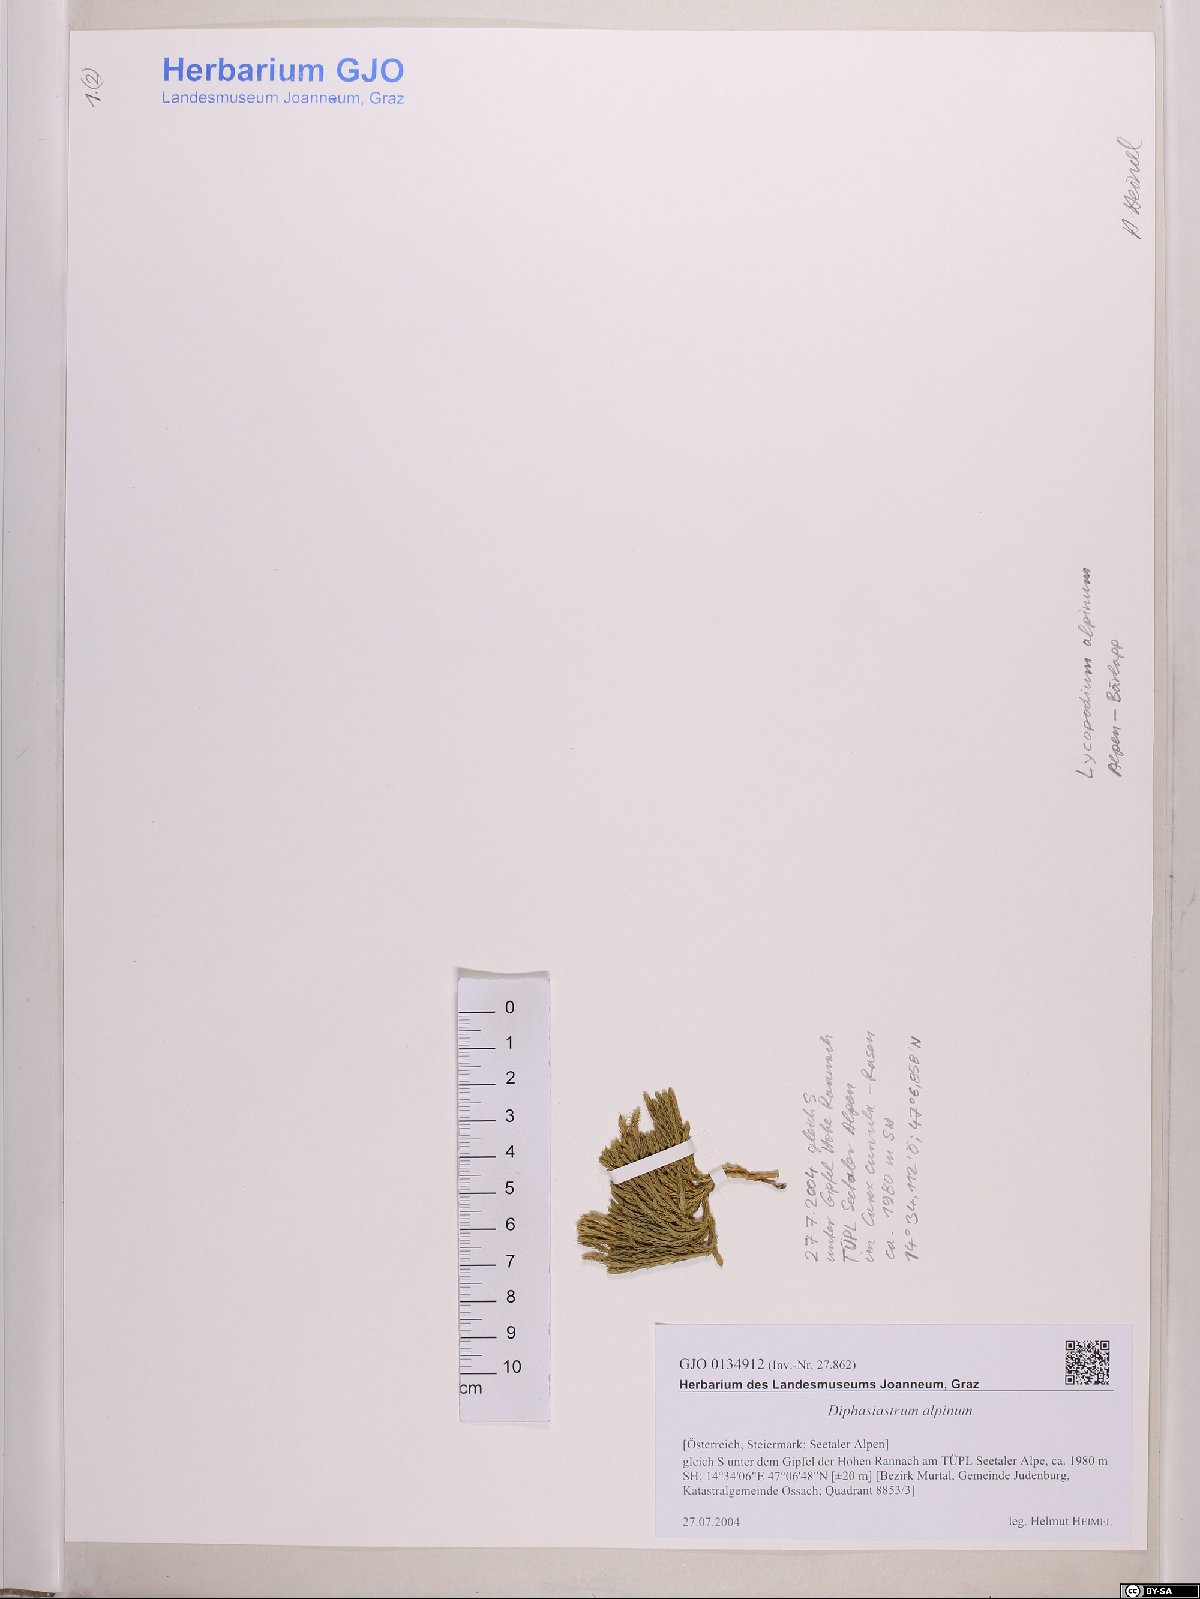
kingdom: Plantae
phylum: Tracheophyta
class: Lycopodiopsida
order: Lycopodiales
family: Lycopodiaceae
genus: Diphasiastrum
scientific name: Diphasiastrum alpinum
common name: Alpine clubmoss
